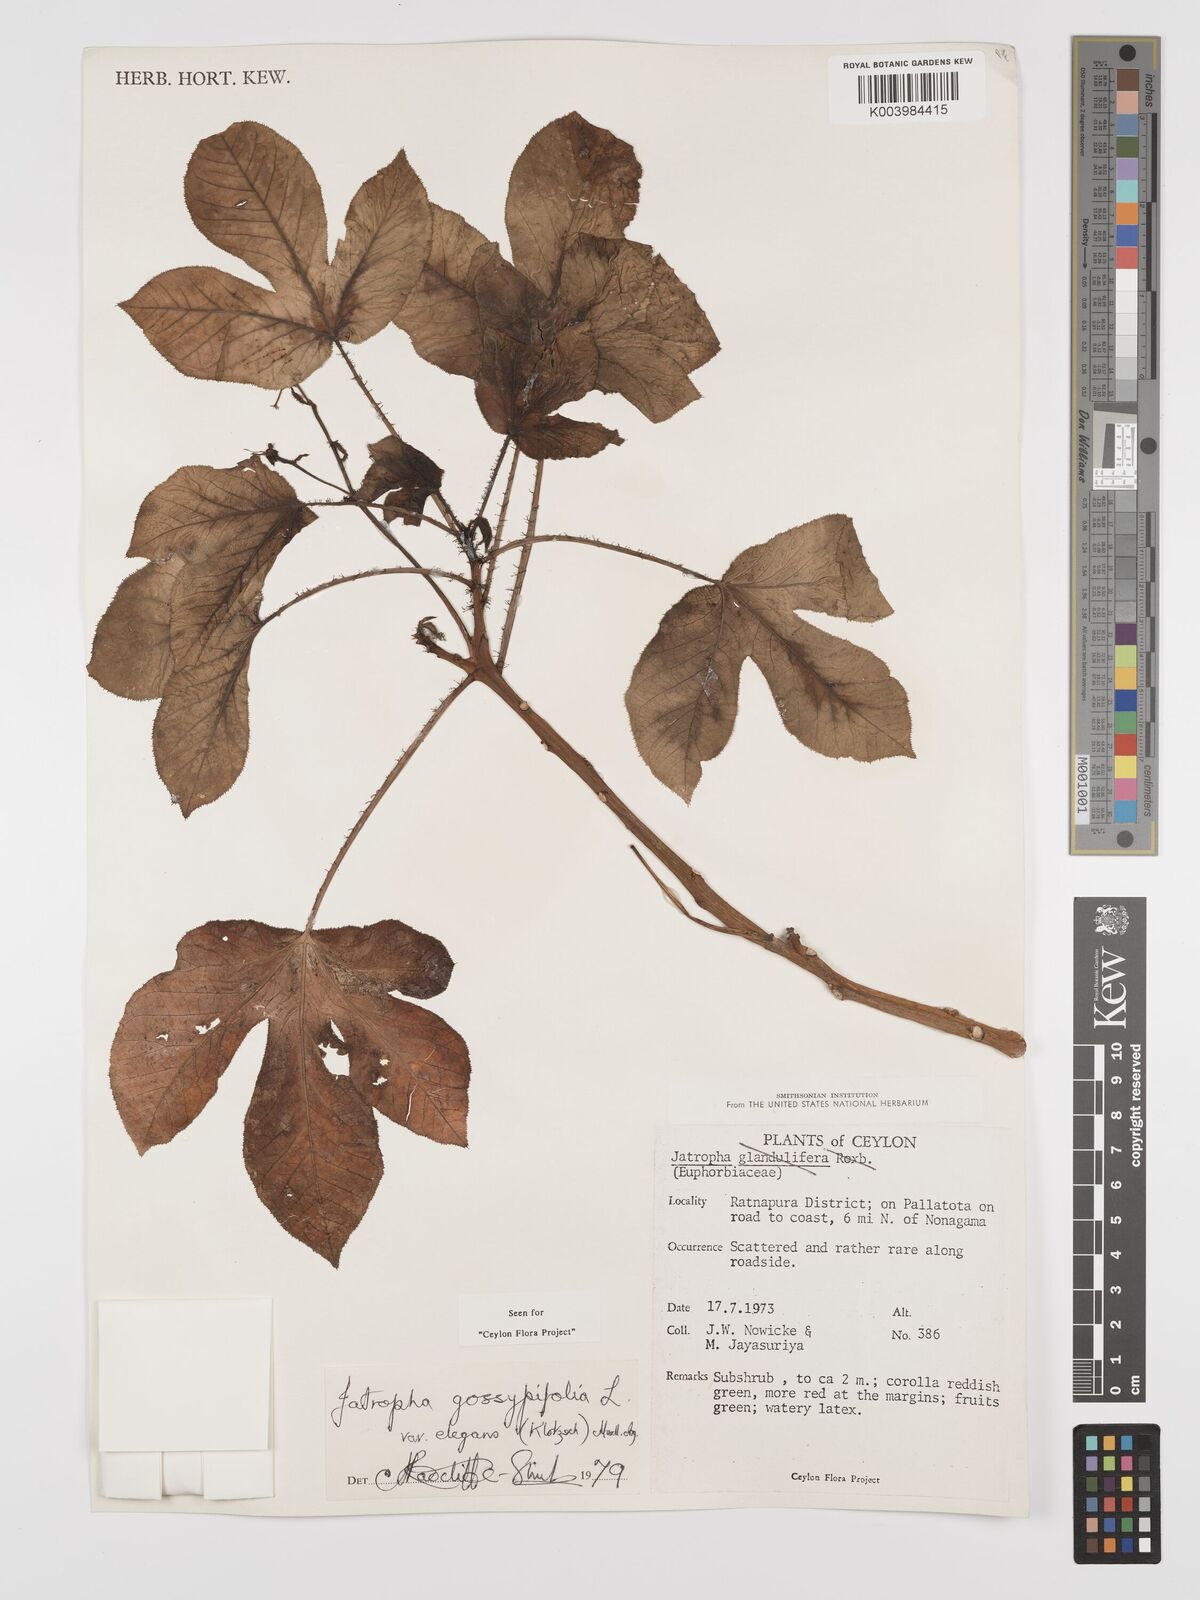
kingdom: Plantae
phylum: Tracheophyta
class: Magnoliopsida
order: Malpighiales
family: Euphorbiaceae
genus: Jatropha
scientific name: Jatropha gossypiifolia
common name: Bellyache bush
